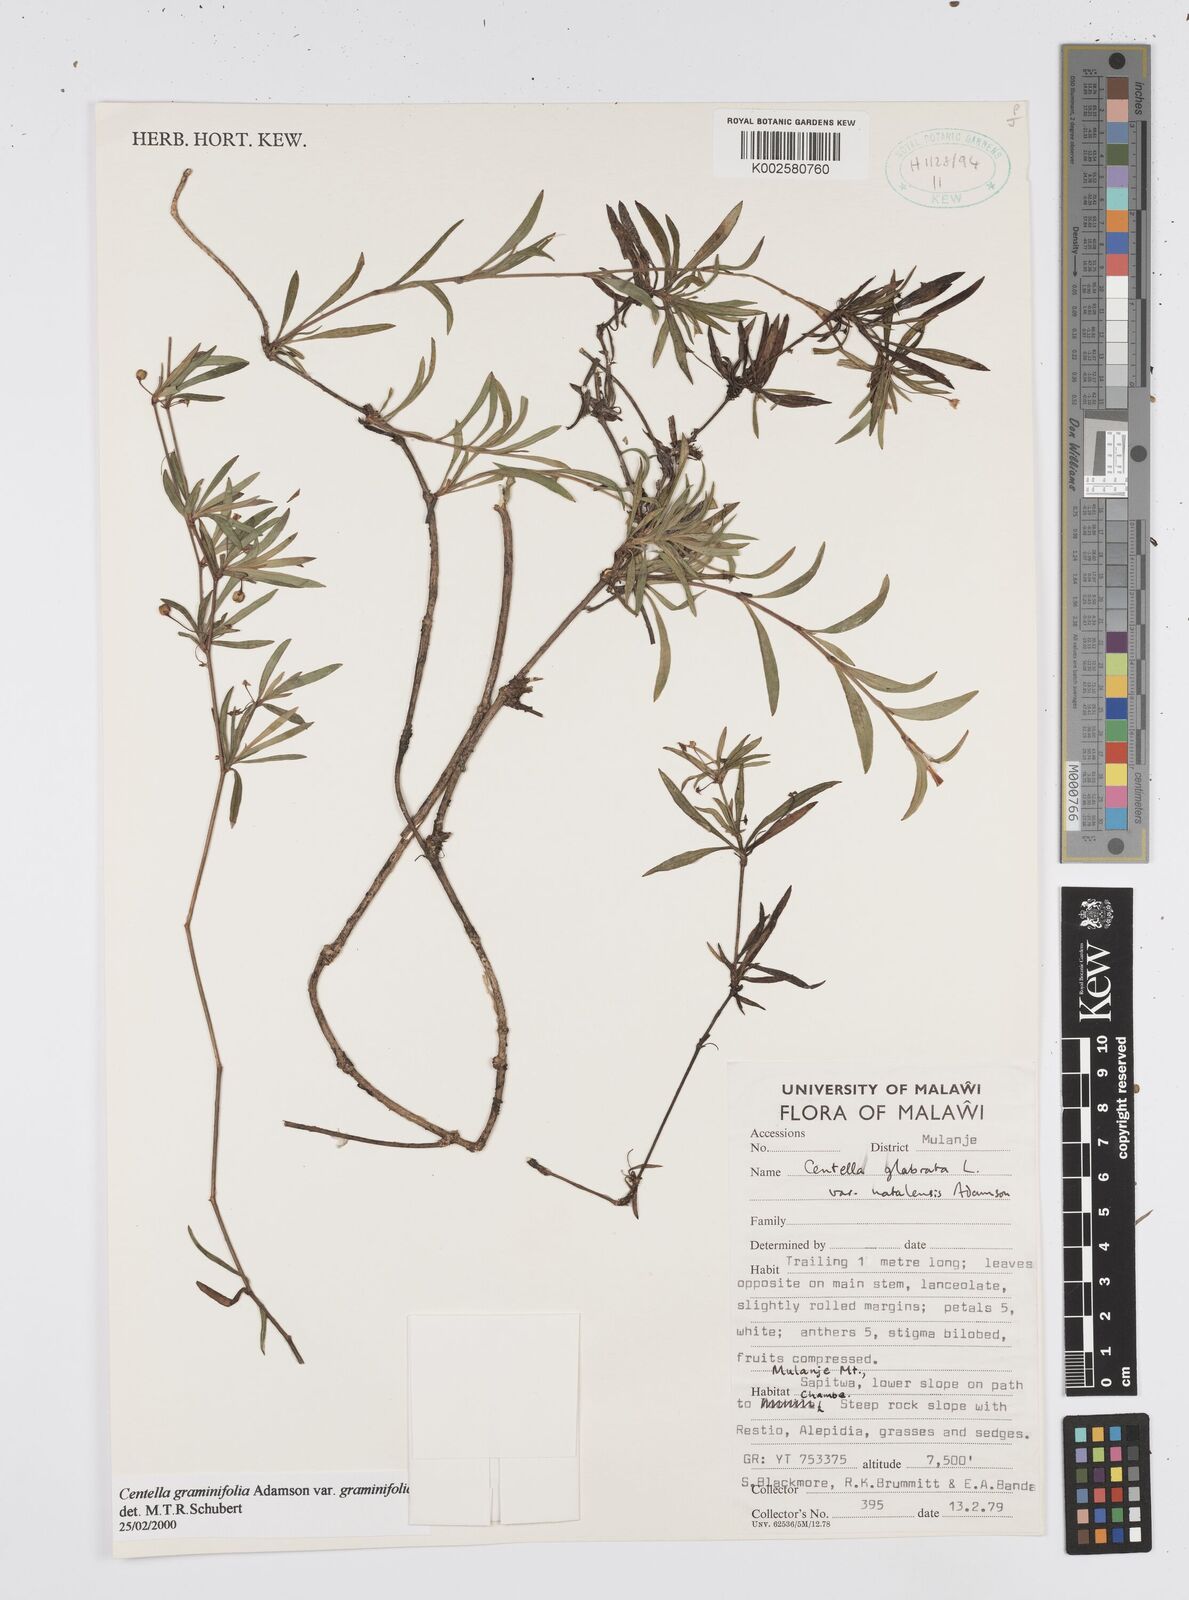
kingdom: Plantae
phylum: Tracheophyta
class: Magnoliopsida
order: Apiales
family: Apiaceae
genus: Centella
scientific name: Centella graminifolia
